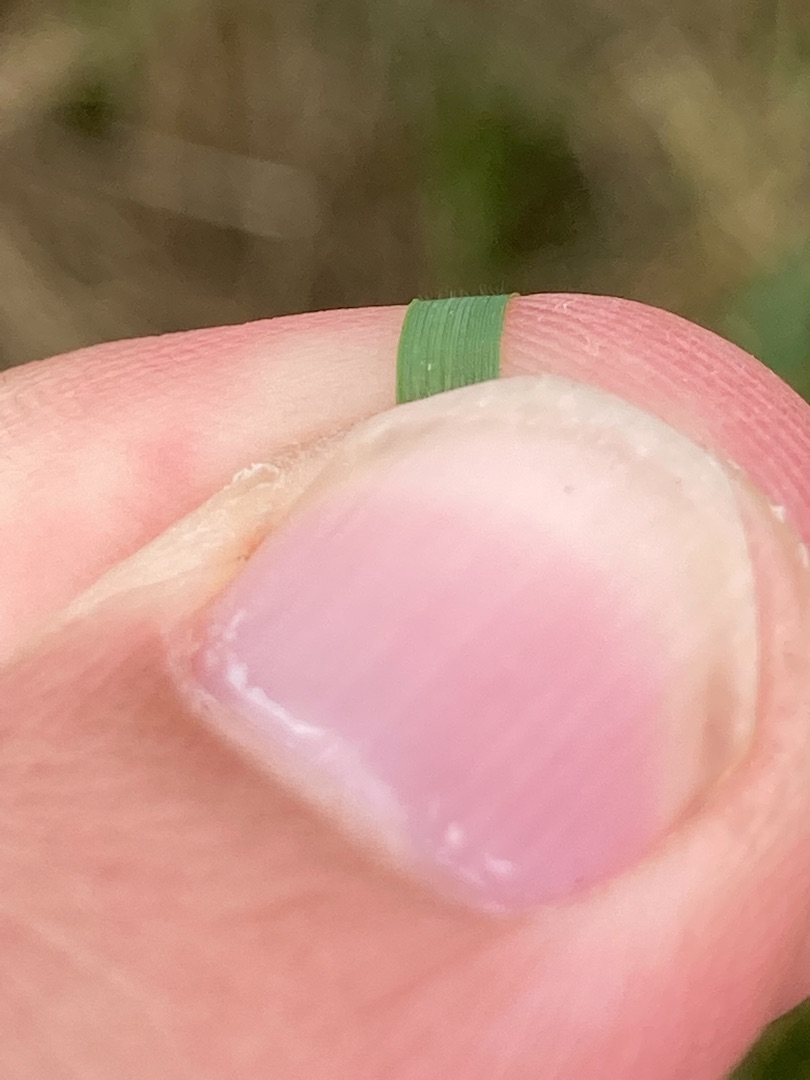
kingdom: Plantae
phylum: Tracheophyta
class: Liliopsida
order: Poales
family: Poaceae
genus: Calamagrostis
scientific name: Calamagrostis canescens
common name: Eng-rørhvene
